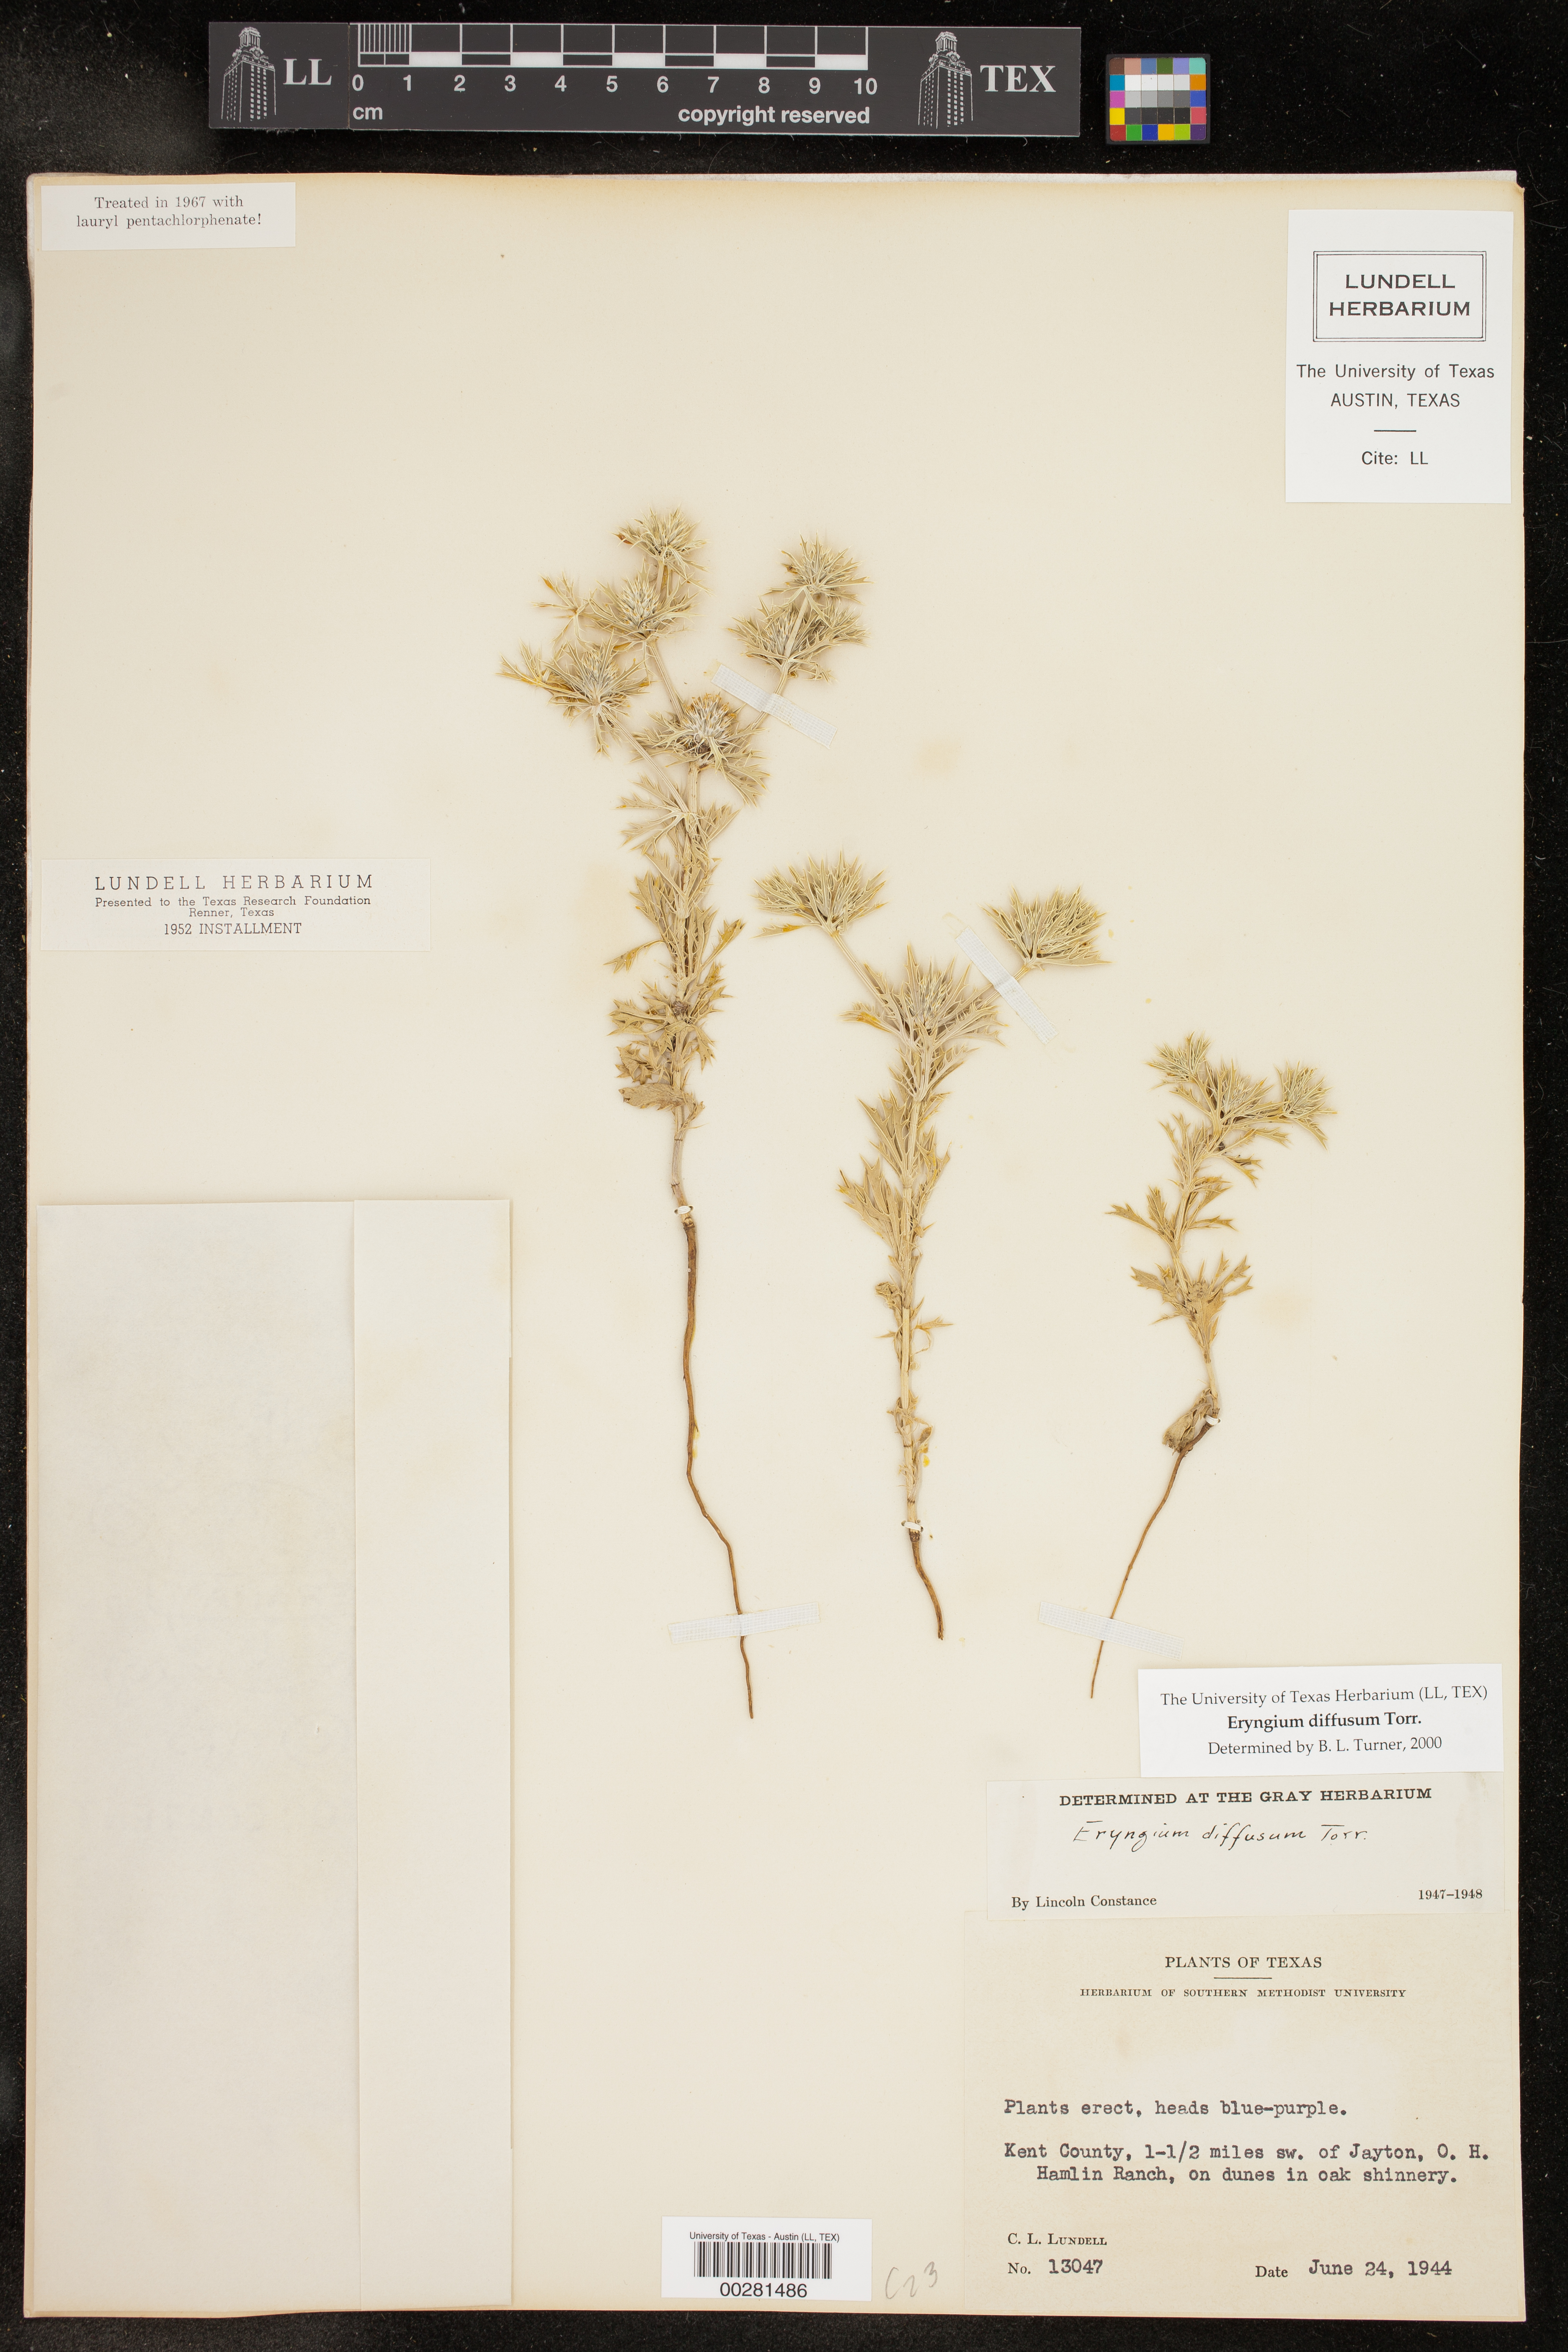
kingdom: Plantae
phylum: Tracheophyta
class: Magnoliopsida
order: Apiales
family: Apiaceae
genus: Eryngium
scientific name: Eryngium diffusum
